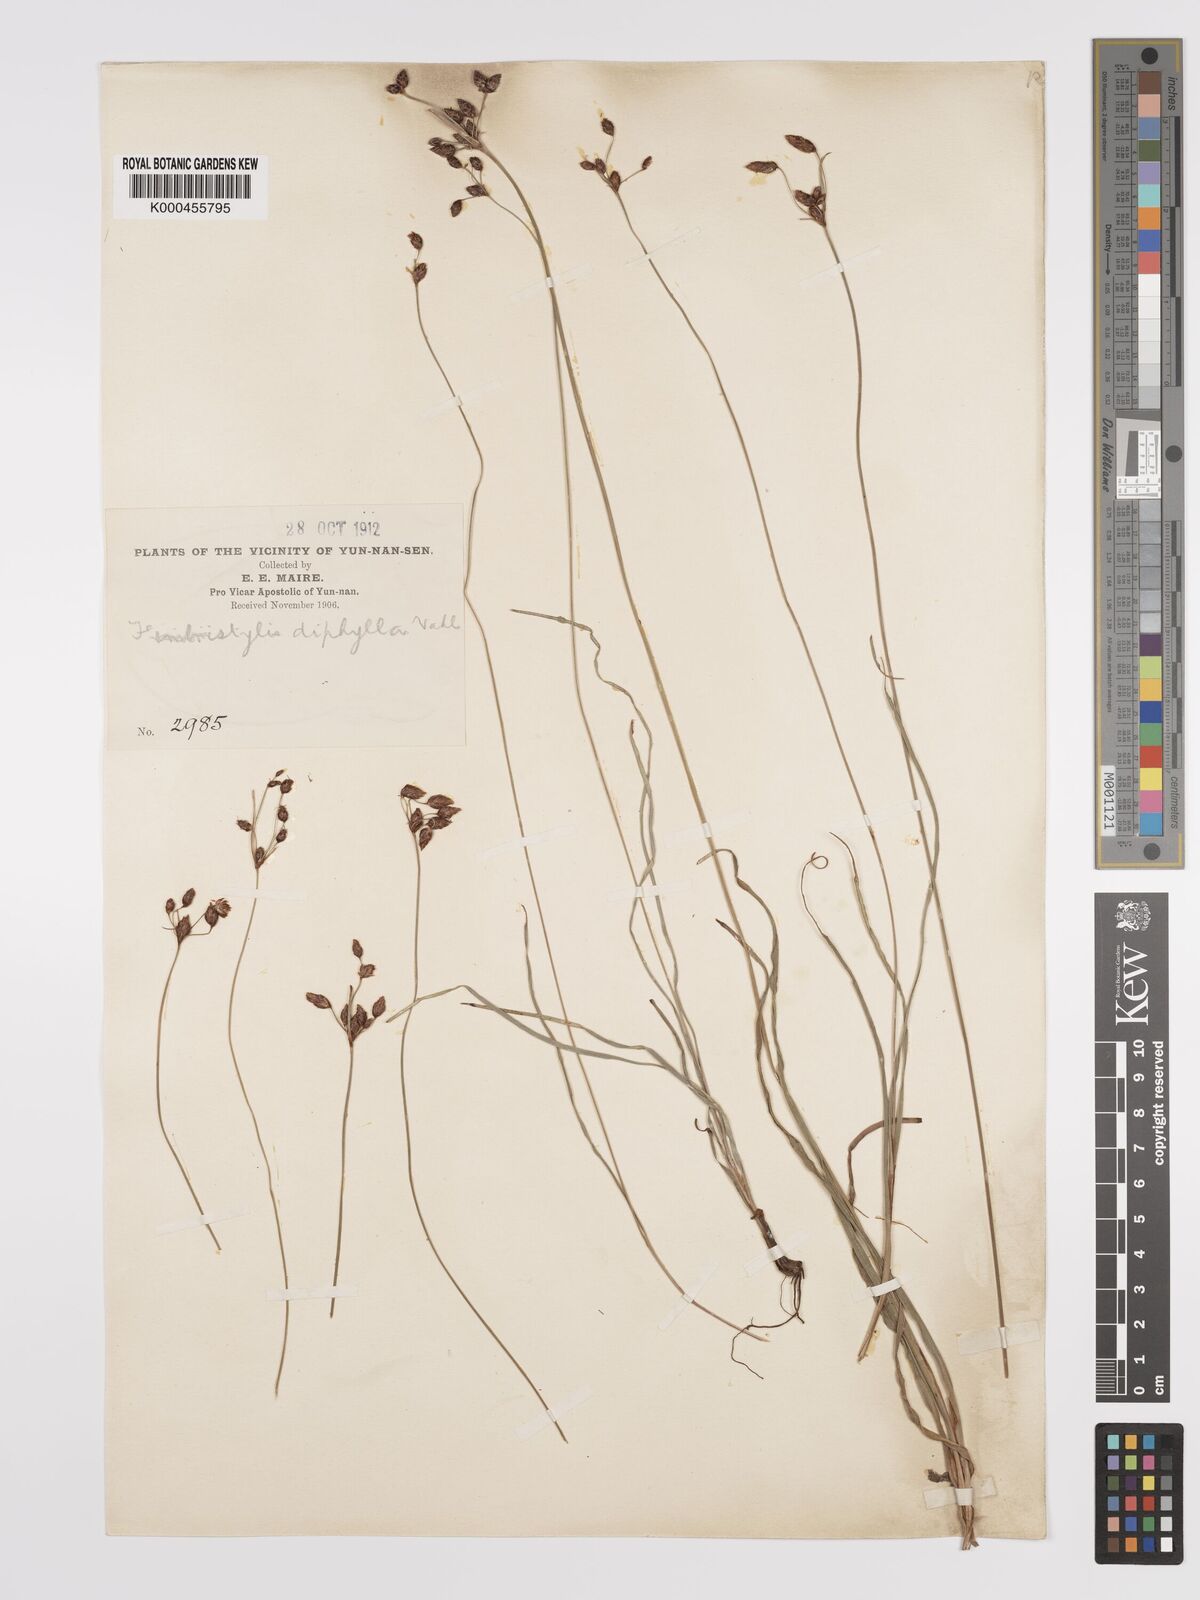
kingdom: Plantae
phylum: Tracheophyta
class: Liliopsida
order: Poales
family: Cyperaceae
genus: Fimbristylis
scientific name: Fimbristylis dichotoma
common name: Forked fimbry
